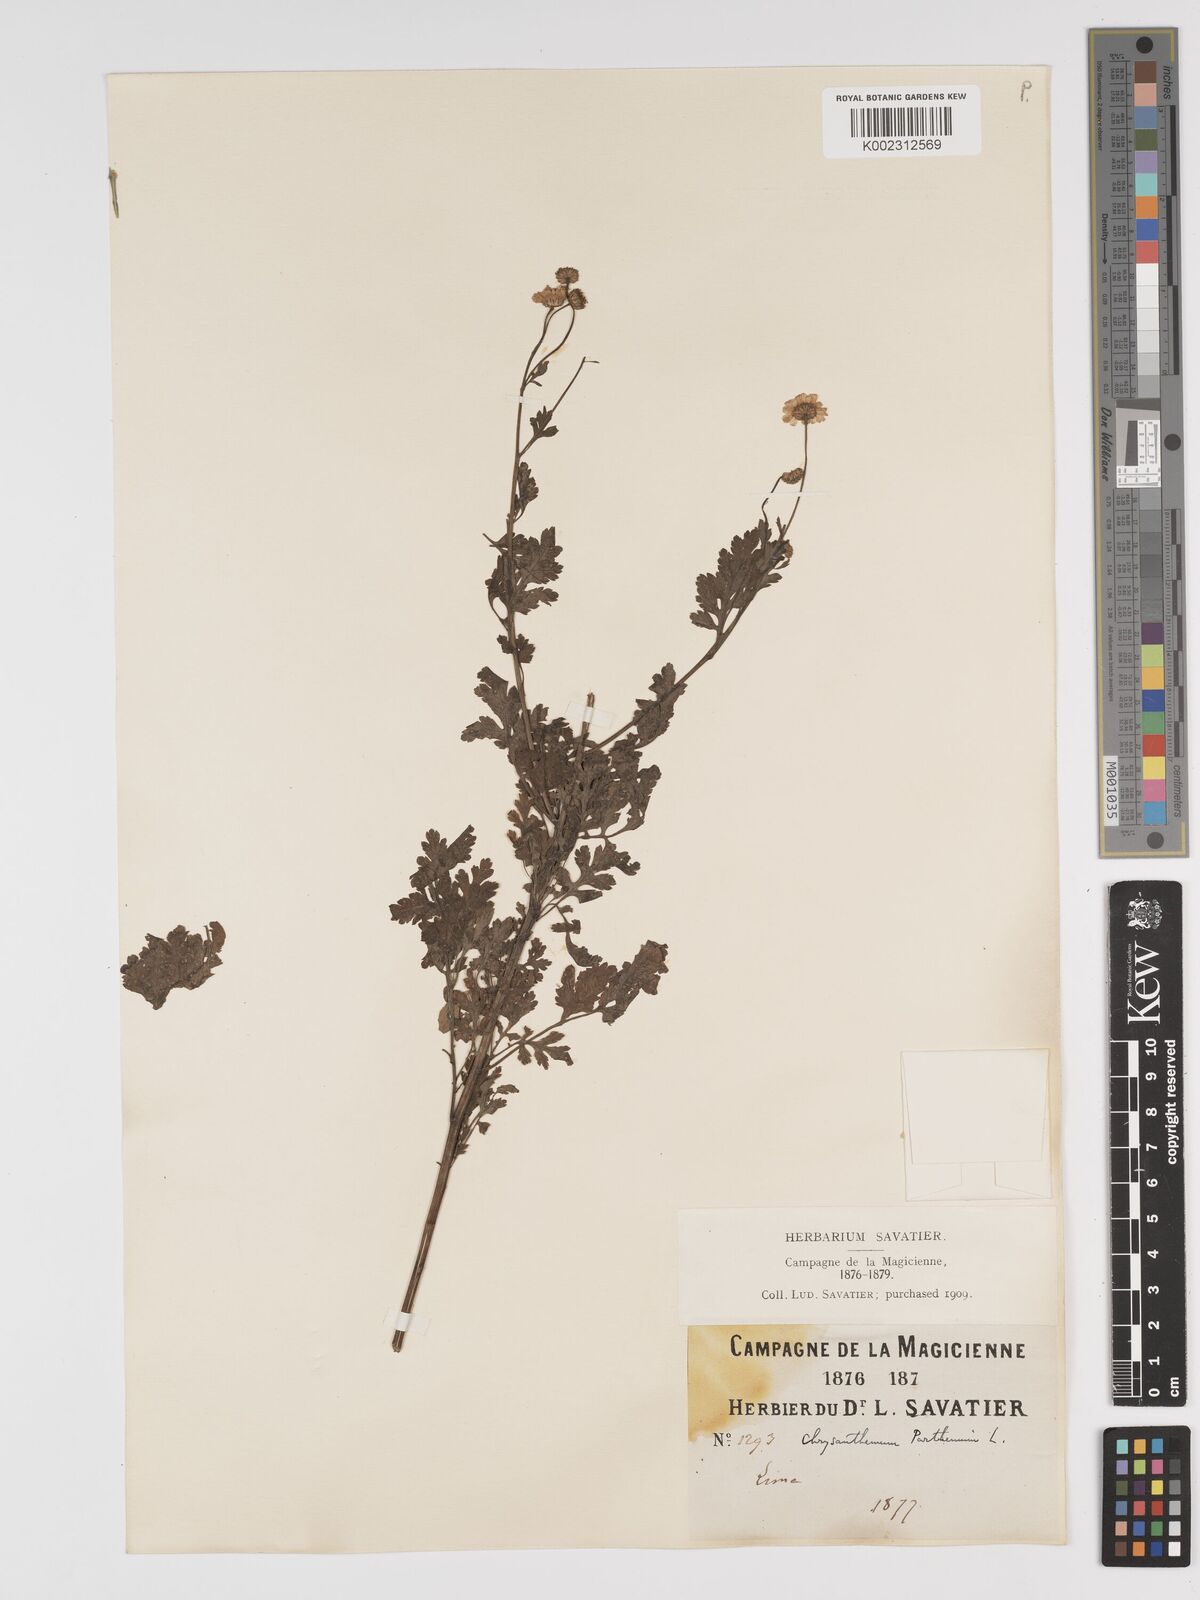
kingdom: Plantae
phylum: Tracheophyta
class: Magnoliopsida
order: Asterales
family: Asteraceae
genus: Tanacetum
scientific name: Tanacetum parthenium
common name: Feverfew
